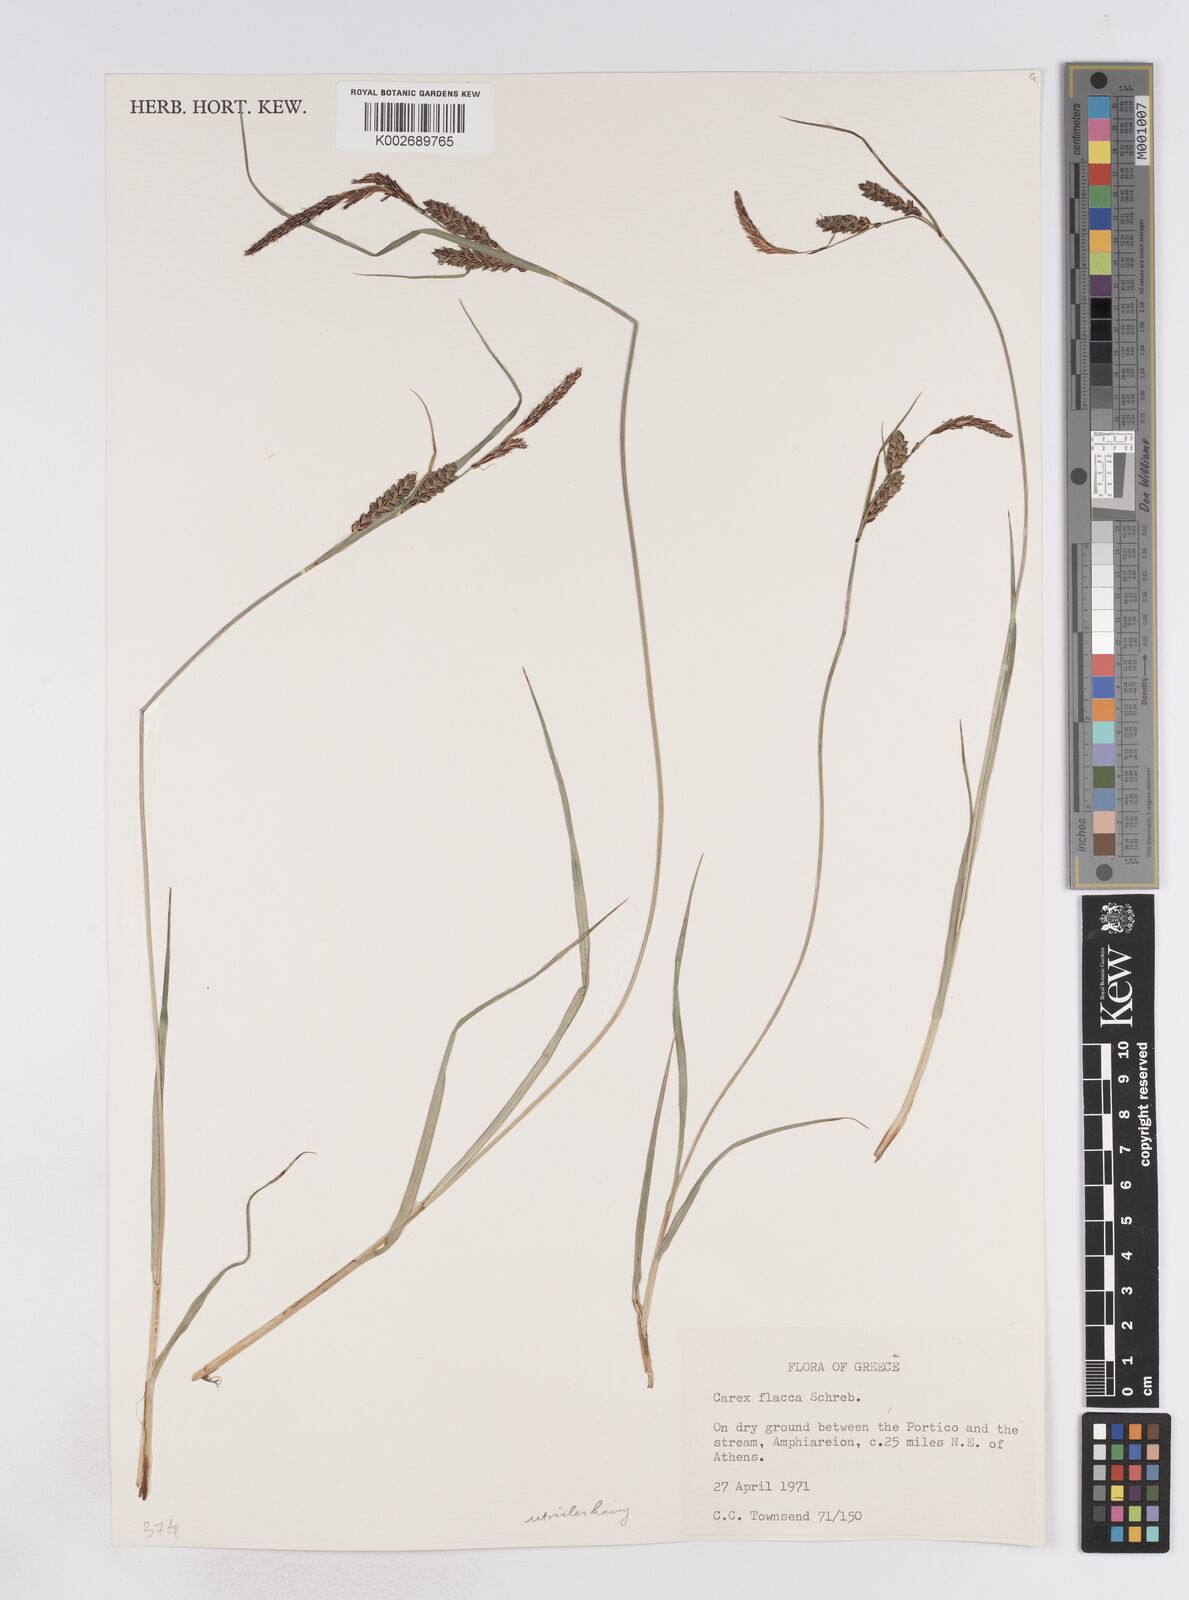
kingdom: Plantae
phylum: Tracheophyta
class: Liliopsida
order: Poales
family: Cyperaceae
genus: Carex
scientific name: Carex flacca
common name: Glaucous sedge
